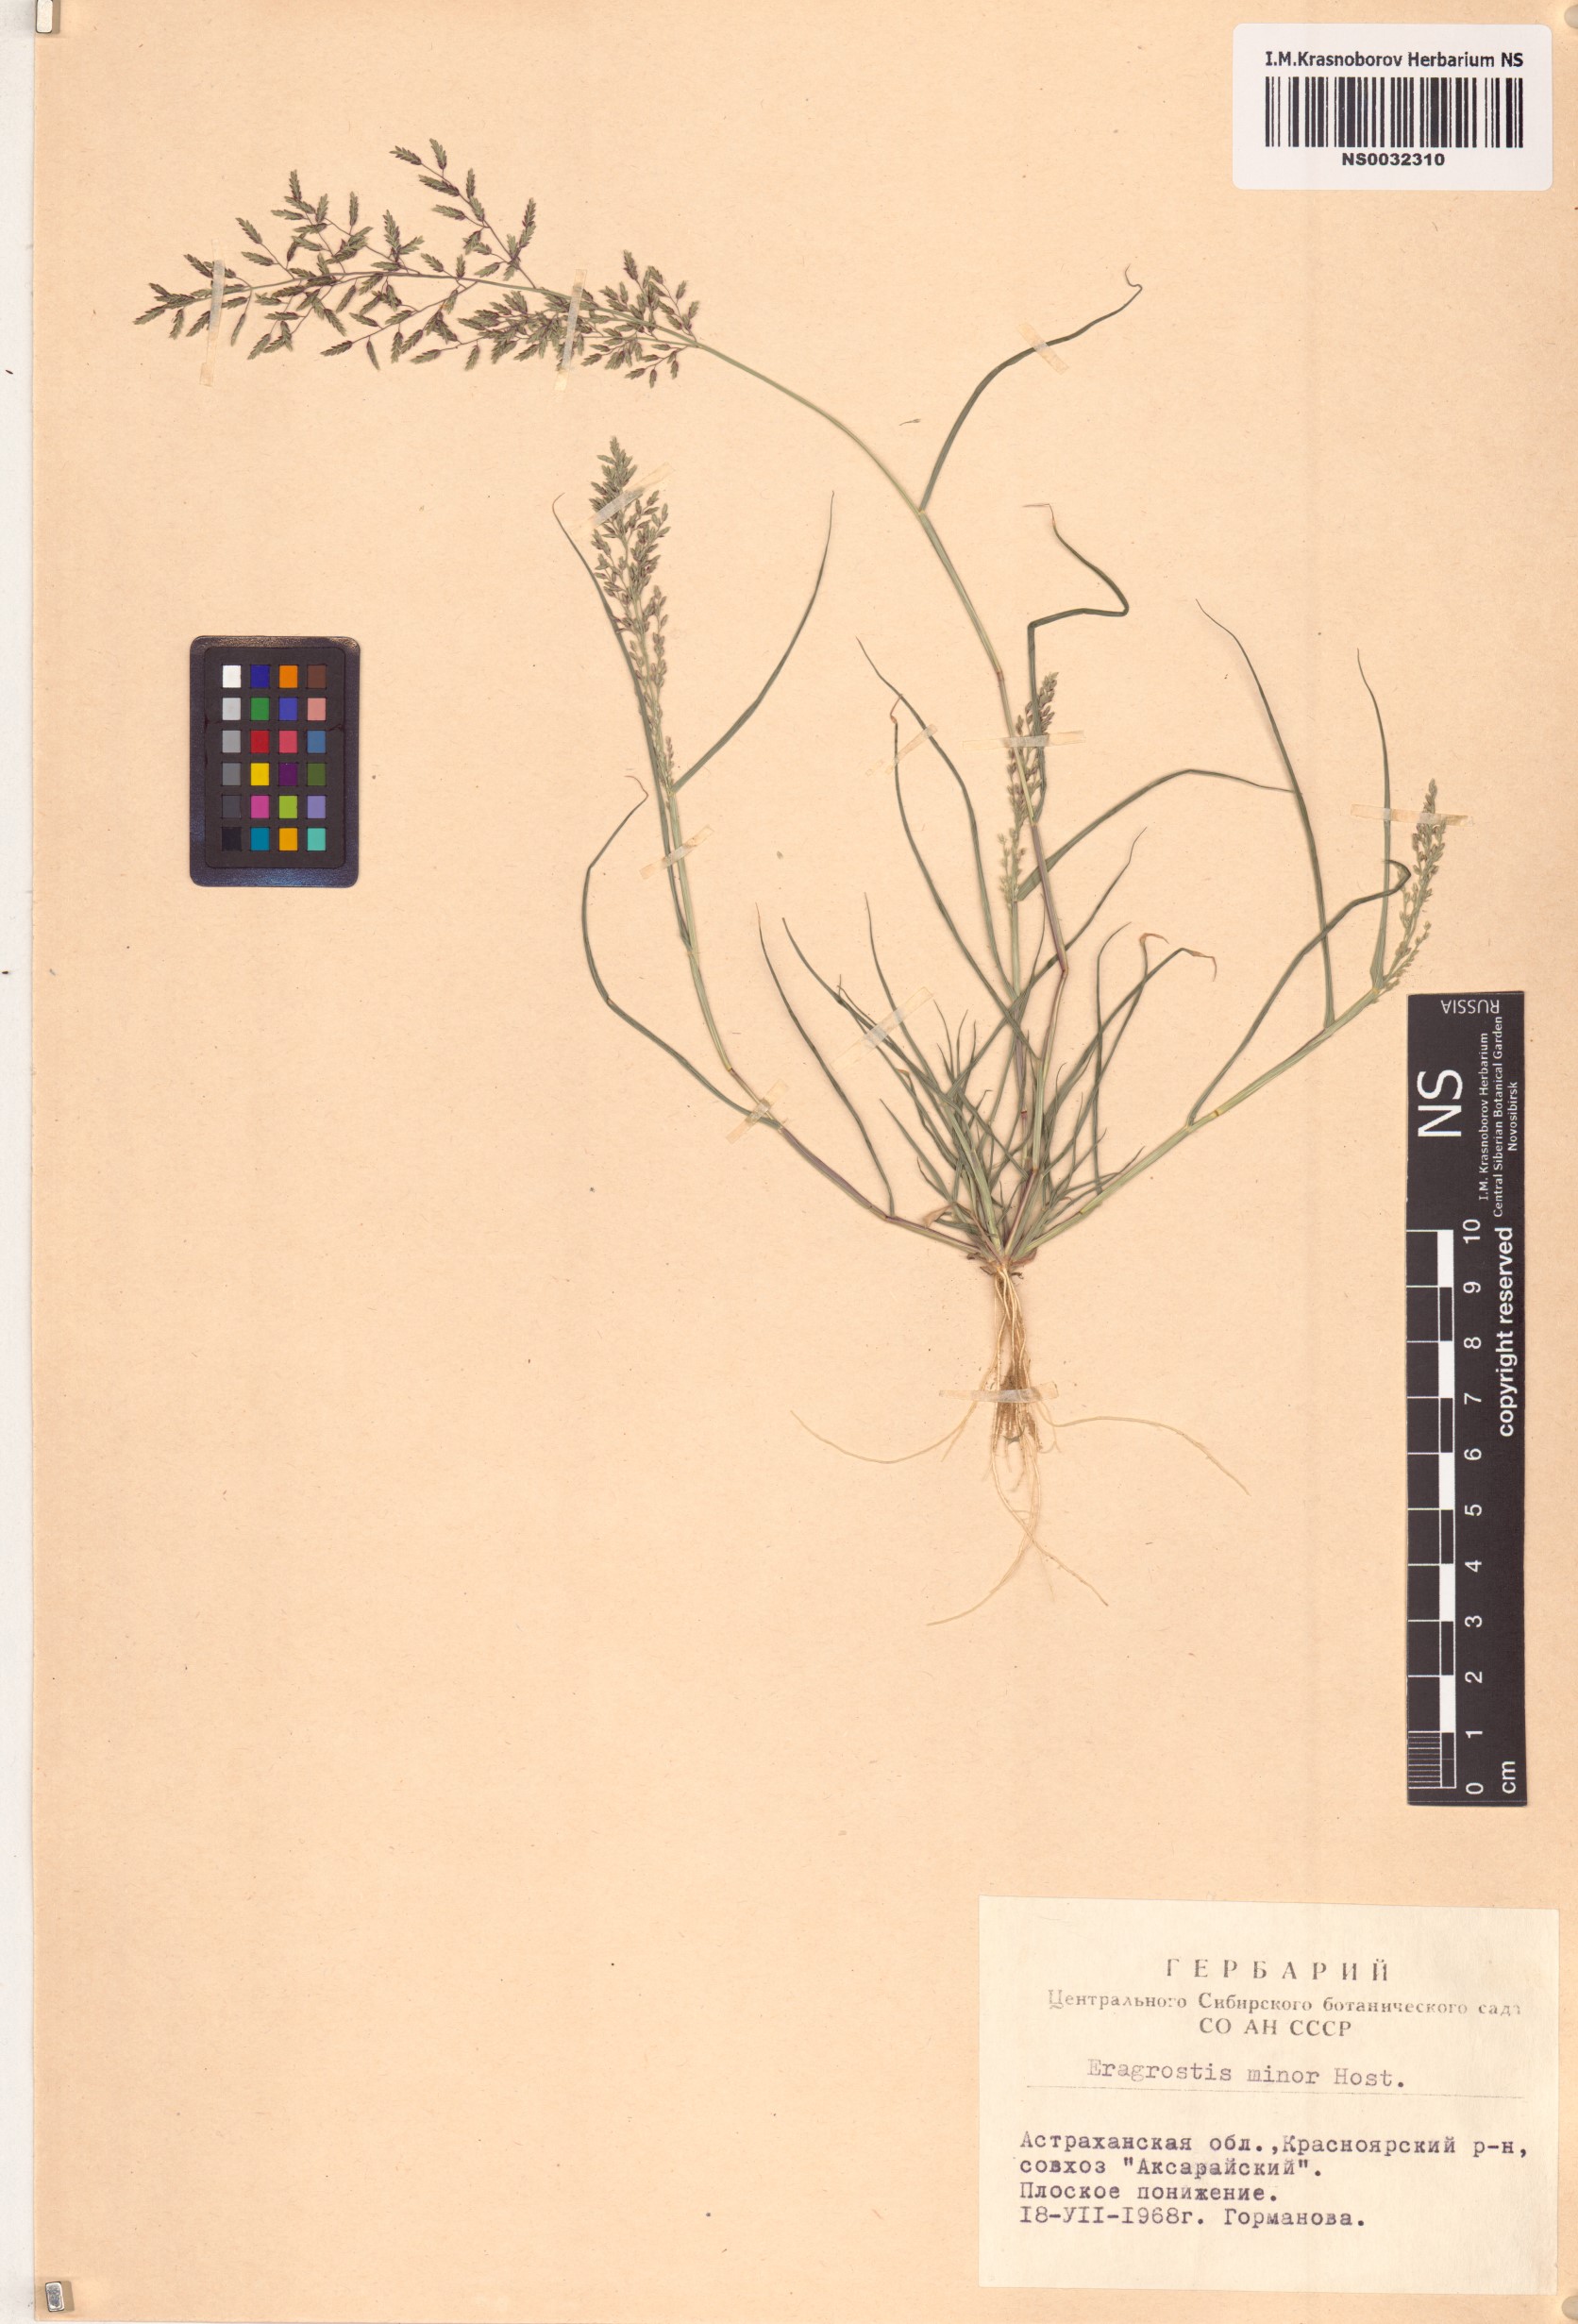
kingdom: Plantae
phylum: Tracheophyta
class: Liliopsida
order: Poales
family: Poaceae
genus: Eragrostis
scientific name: Eragrostis minor
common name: Small love-grass
